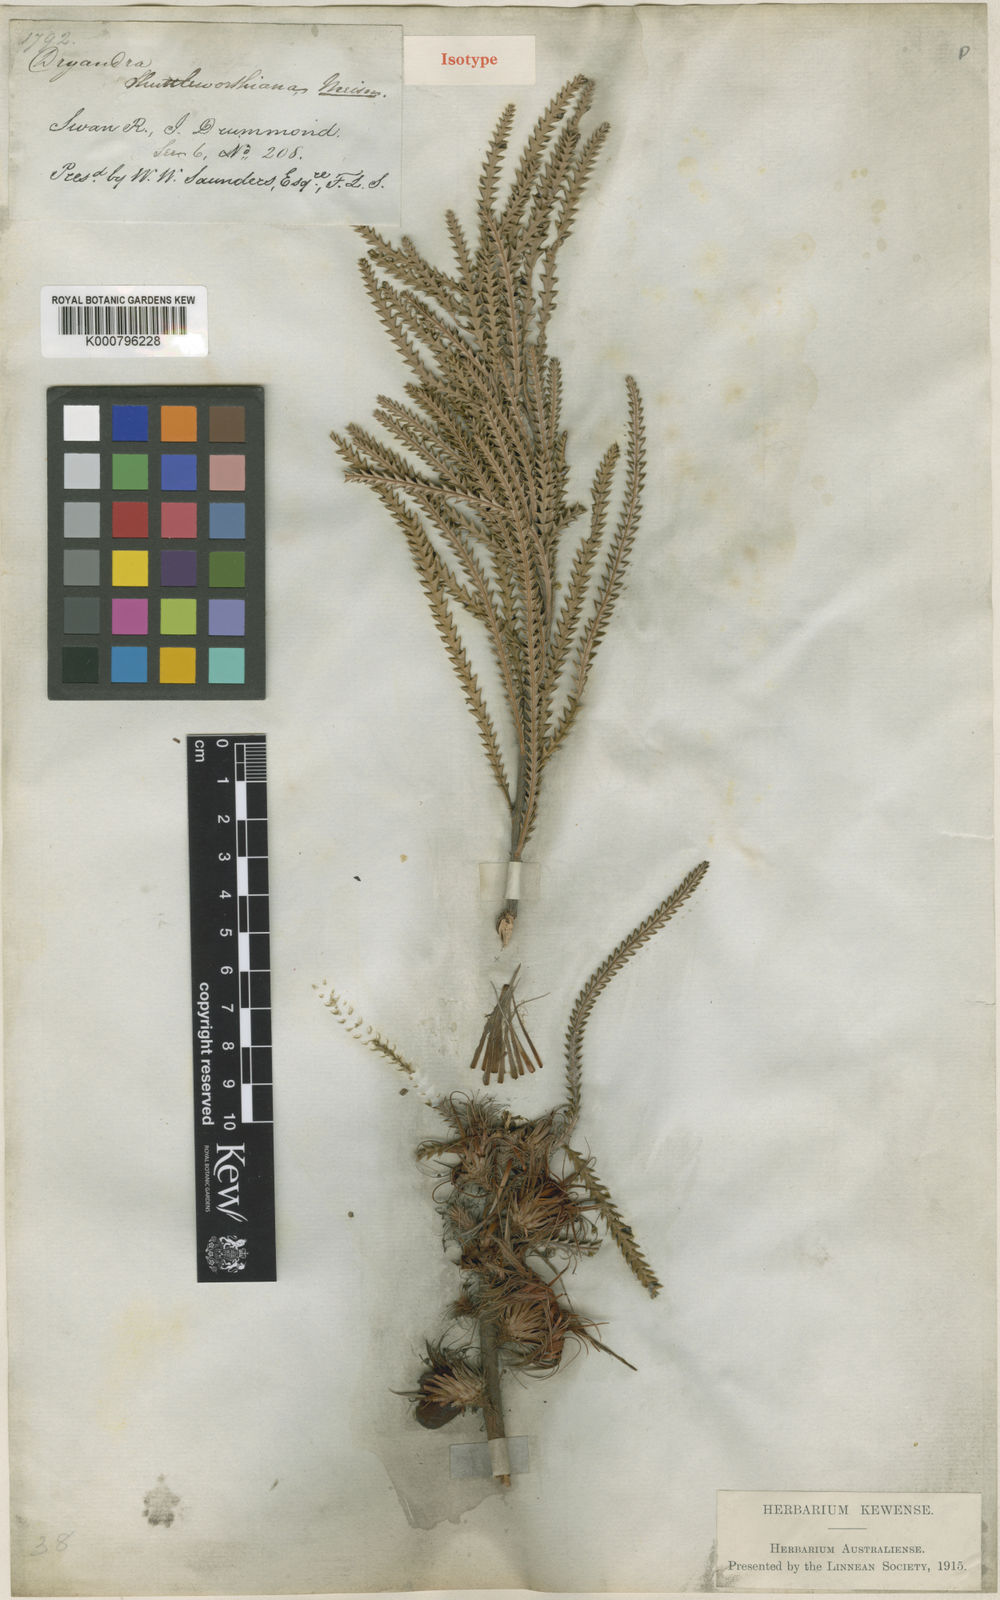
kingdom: Plantae
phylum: Tracheophyta
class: Magnoliopsida
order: Proteales
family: Proteaceae
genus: Banksia
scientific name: Banksia shuttleworthiana
